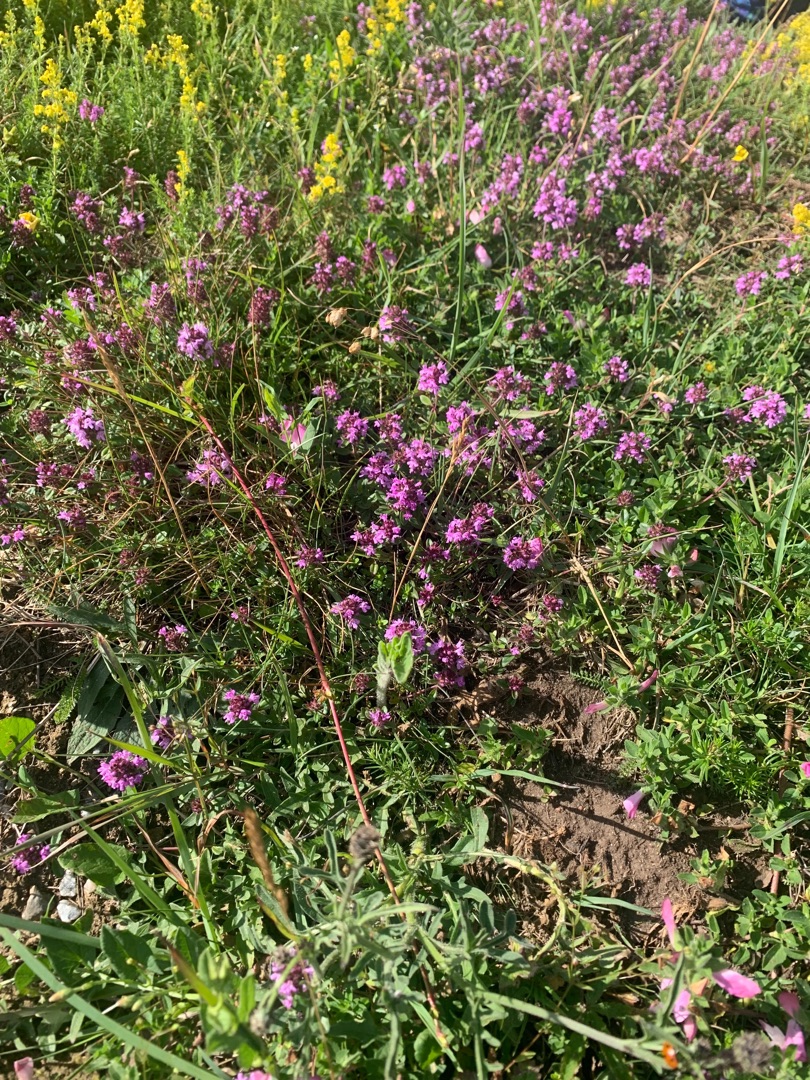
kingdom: Plantae
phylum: Tracheophyta
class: Magnoliopsida
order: Lamiales
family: Lamiaceae
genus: Thymus
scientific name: Thymus pulegioides
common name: Bredbladet timian
